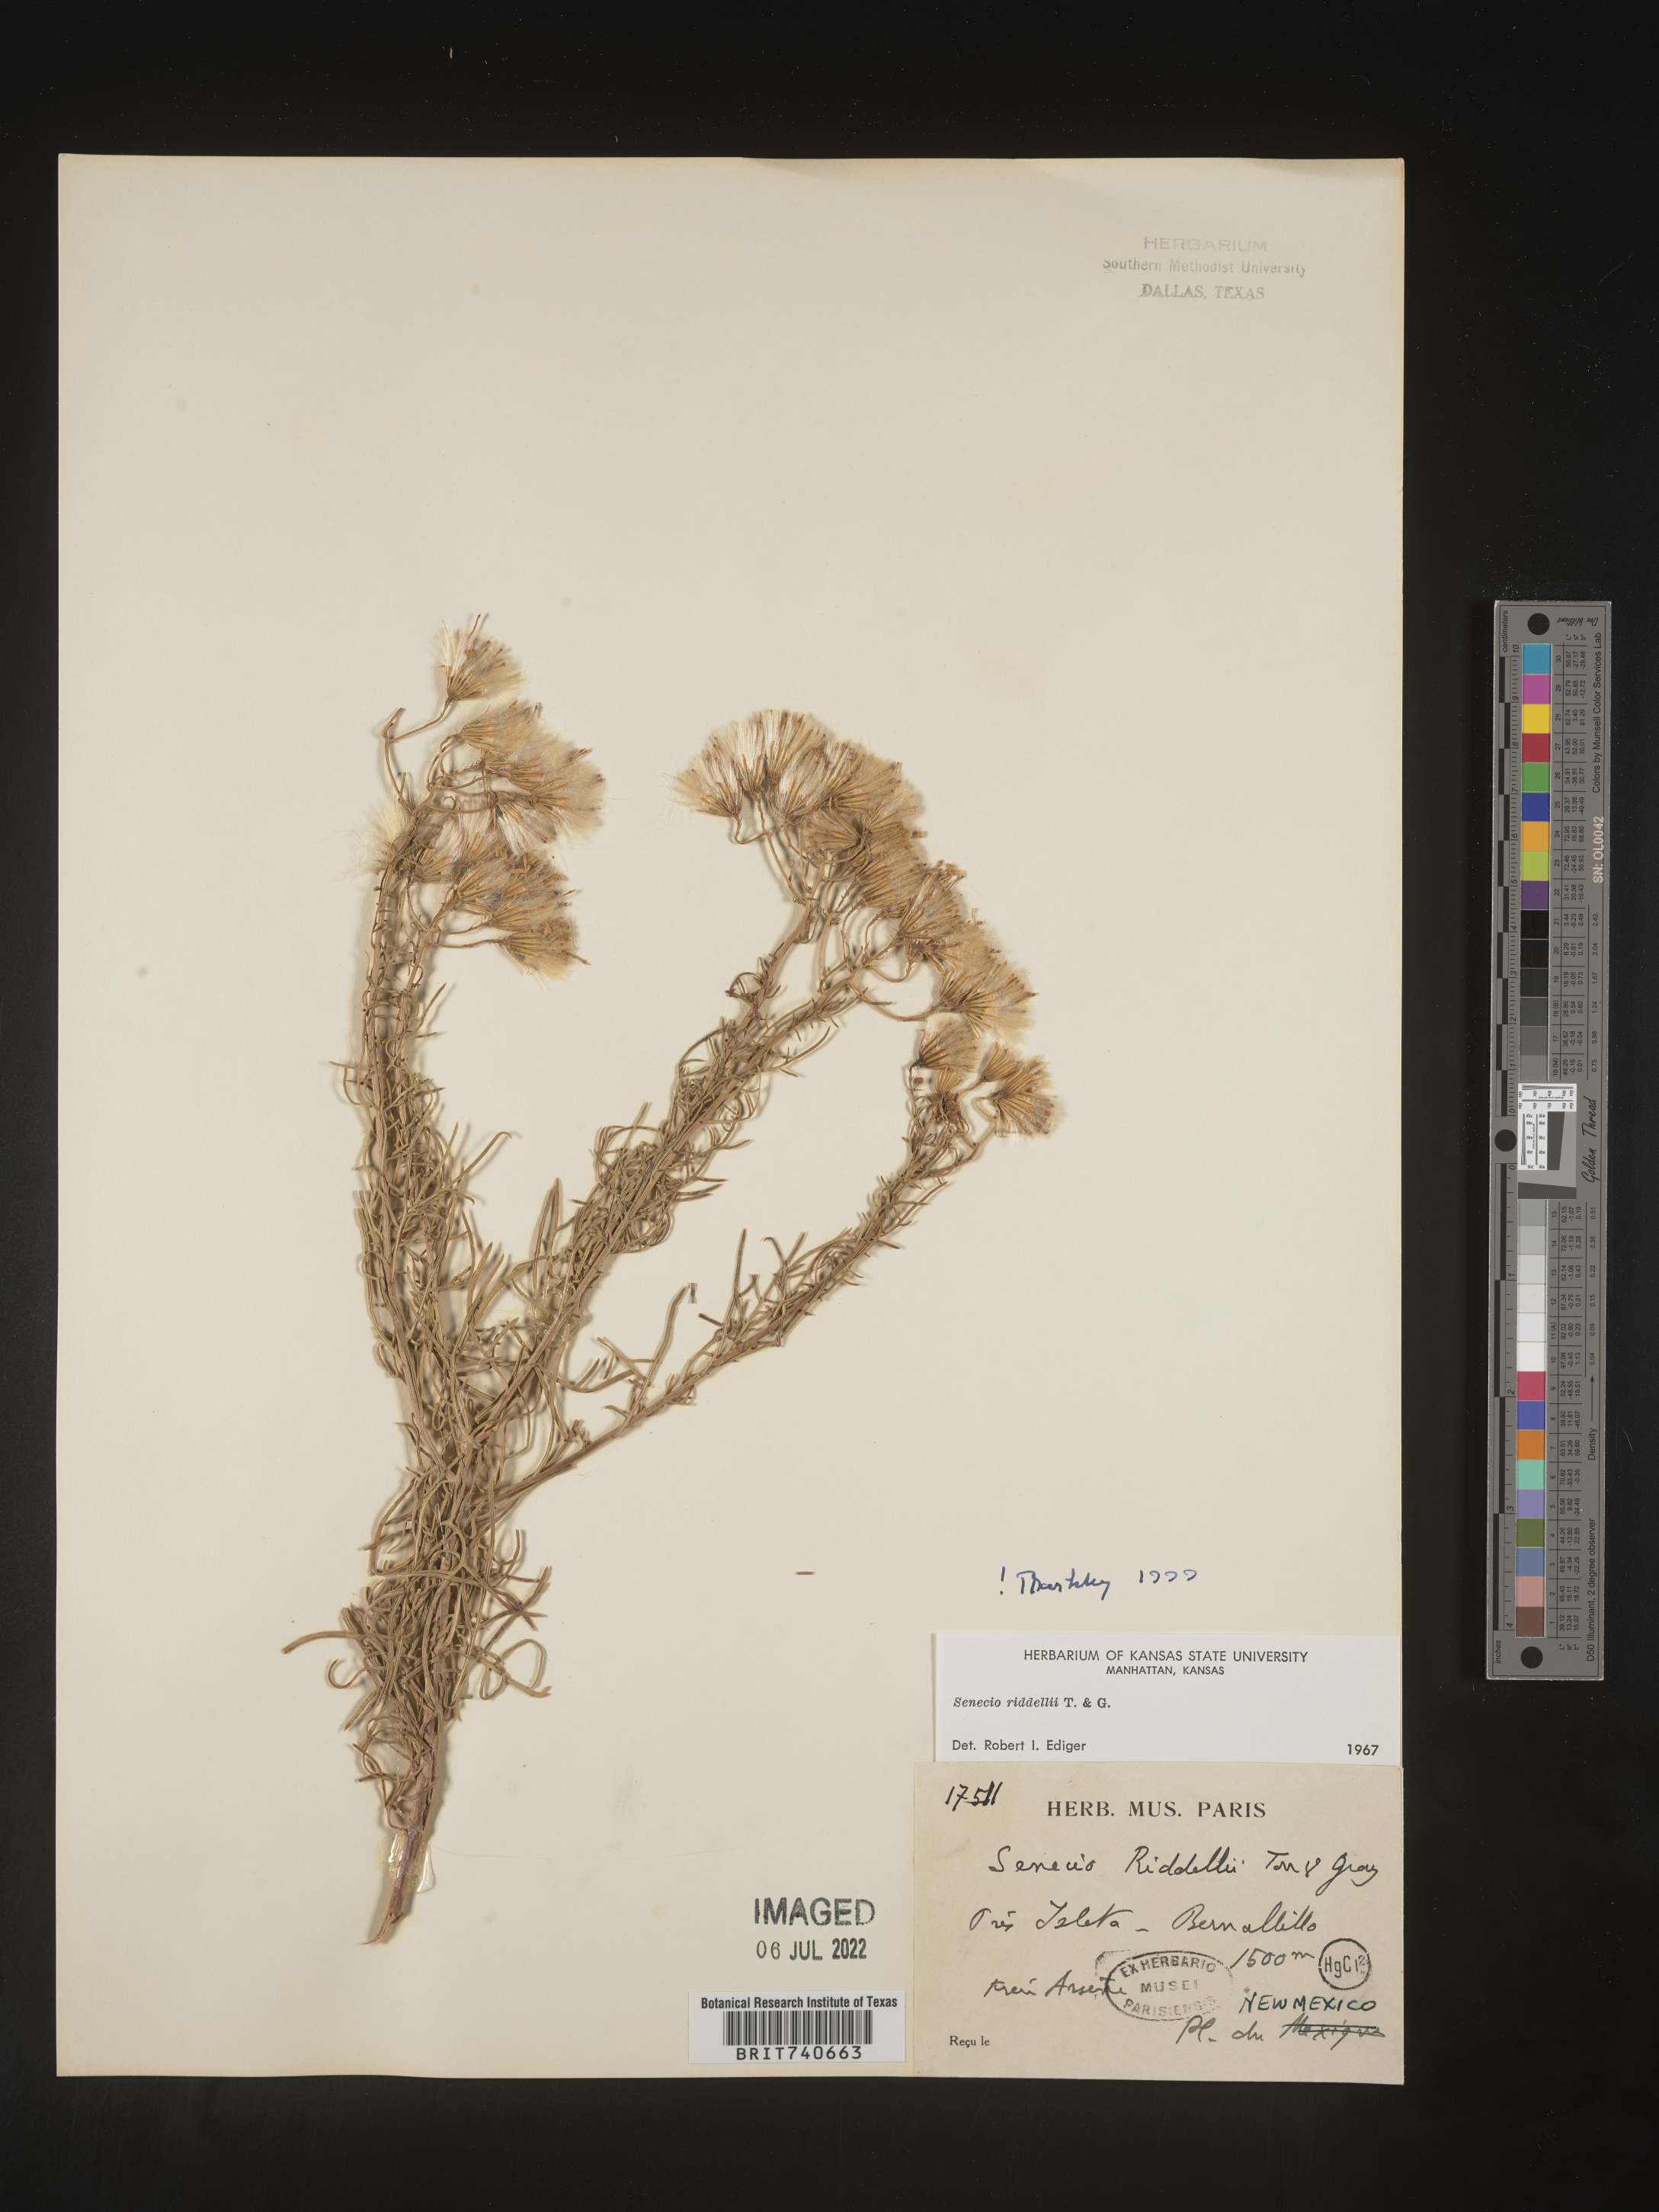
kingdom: Plantae
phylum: Tracheophyta
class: Magnoliopsida
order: Asterales
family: Asteraceae
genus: Senecio
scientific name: Senecio riddellii
